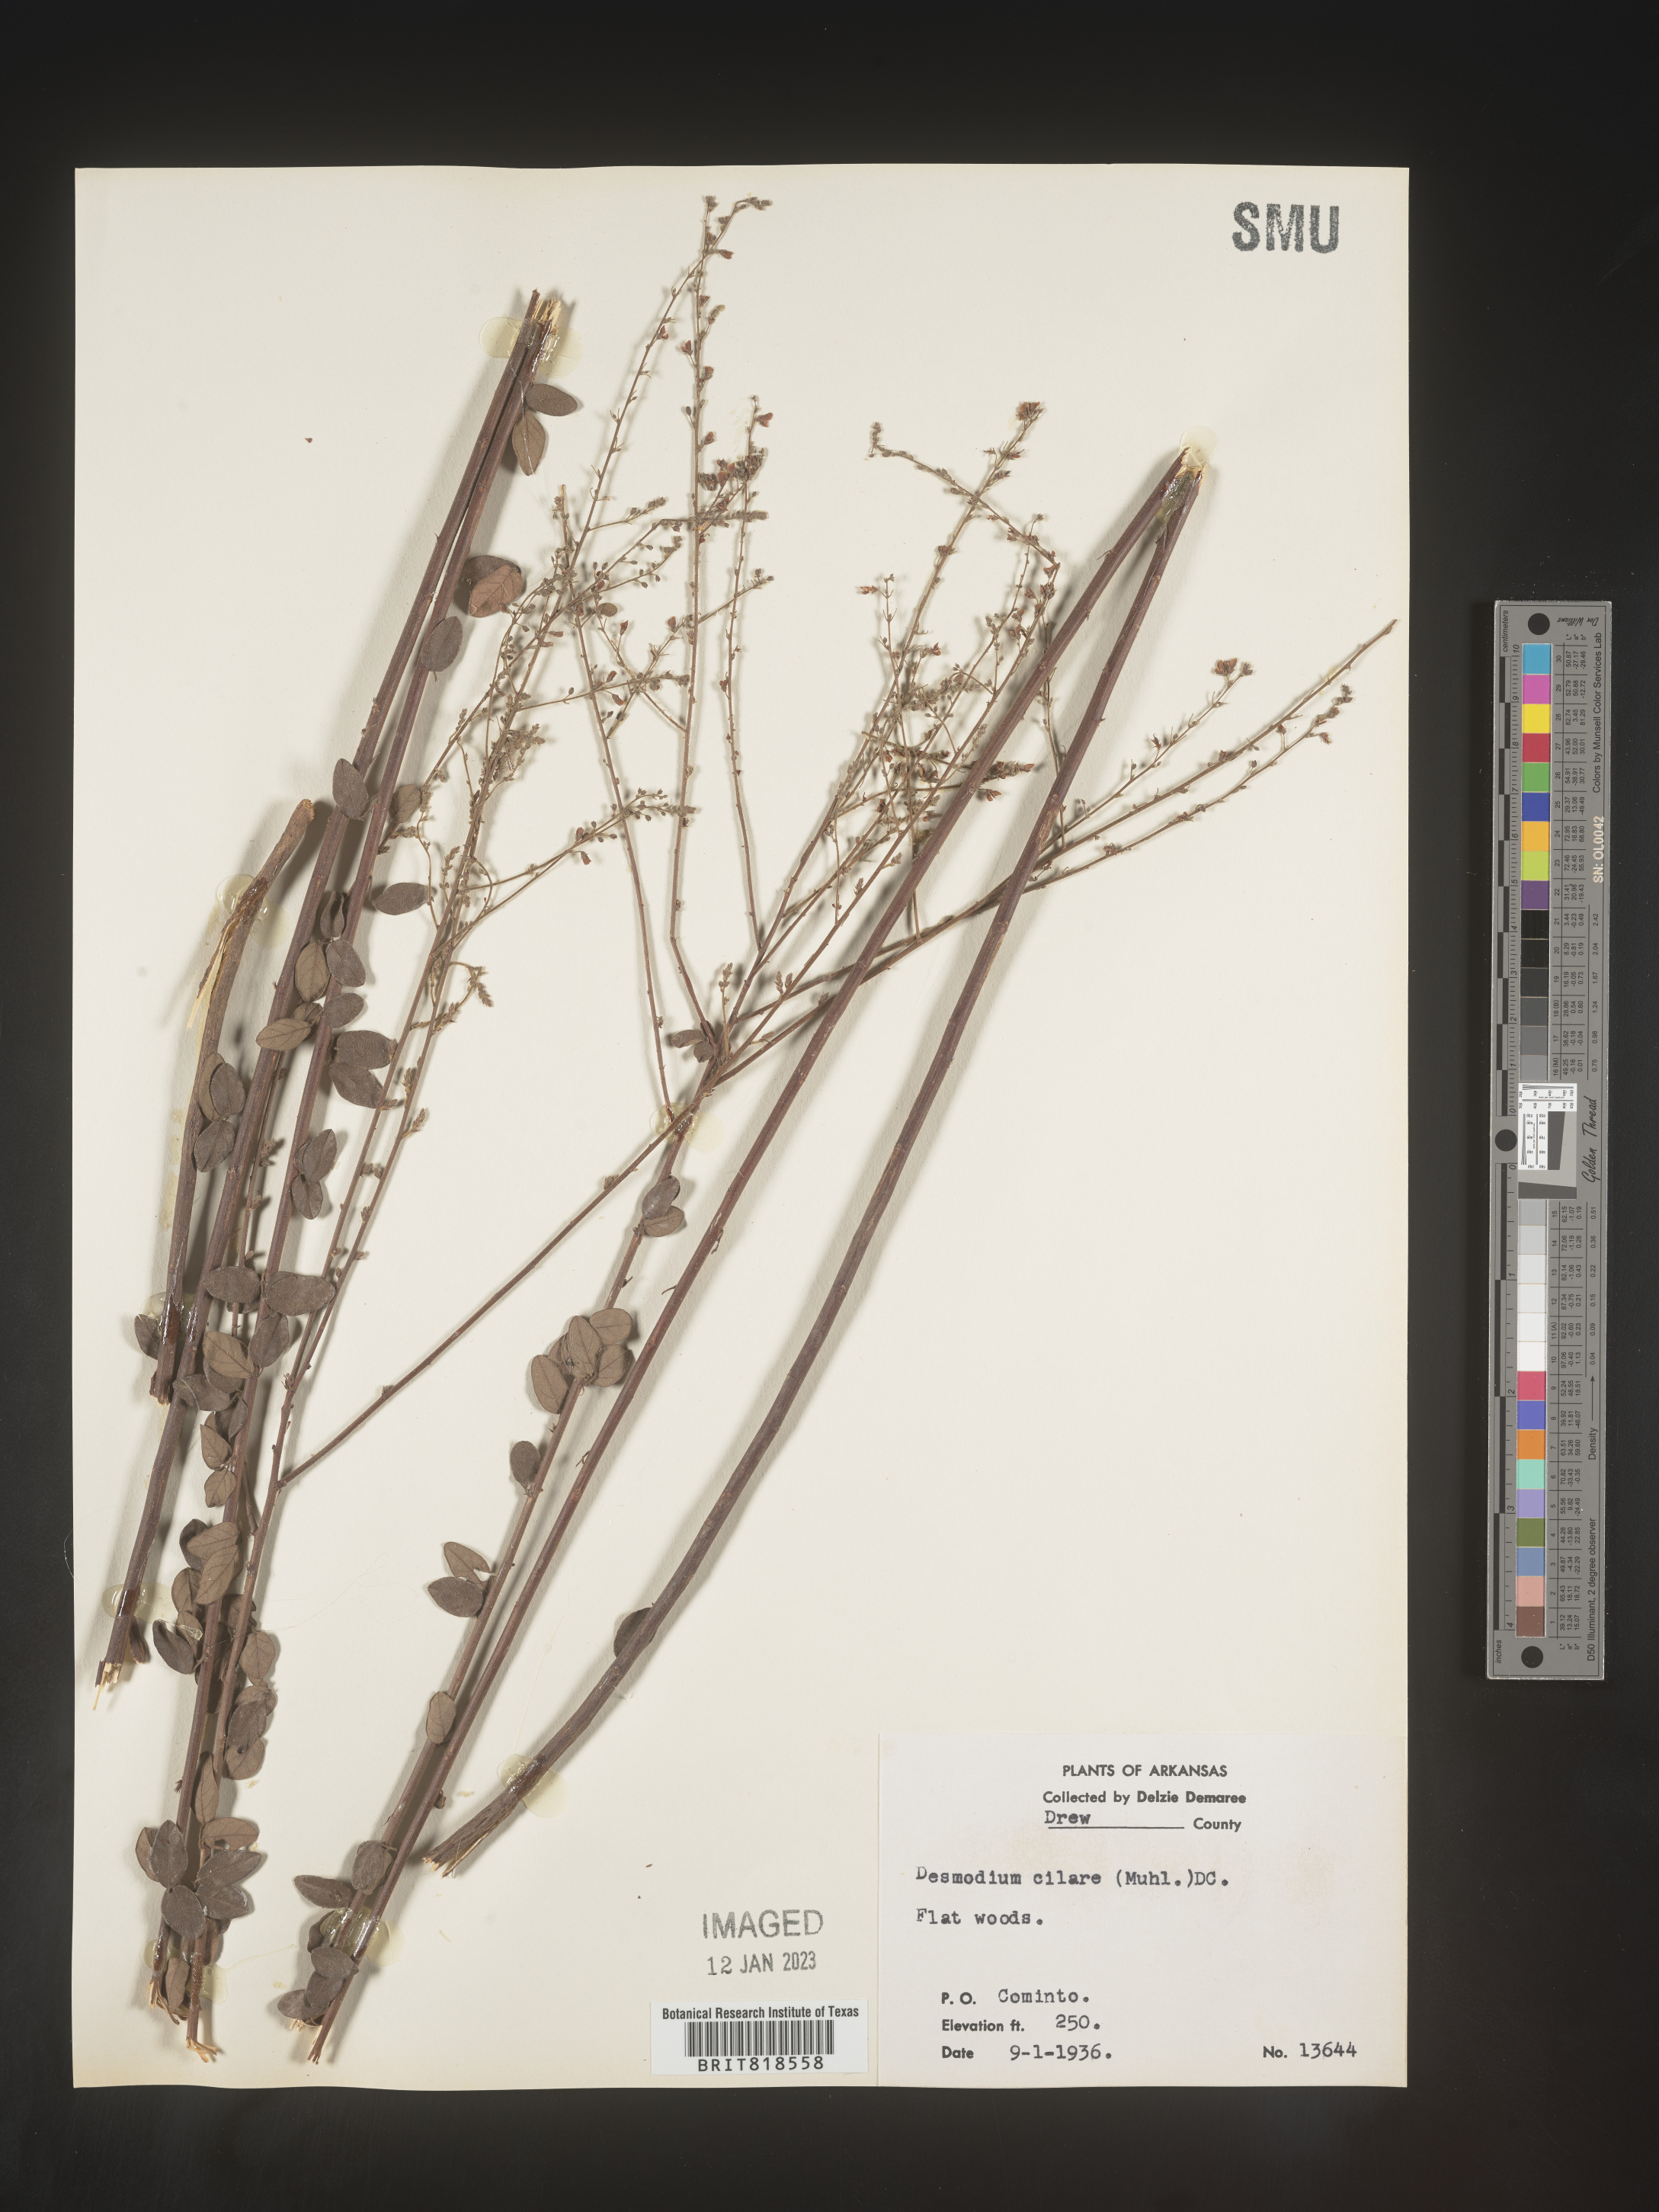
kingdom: Plantae
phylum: Tracheophyta
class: Magnoliopsida
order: Fabales
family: Fabaceae
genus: Desmodium
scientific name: Desmodium ciliare
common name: Hairy small-leaf ticktrefoil
